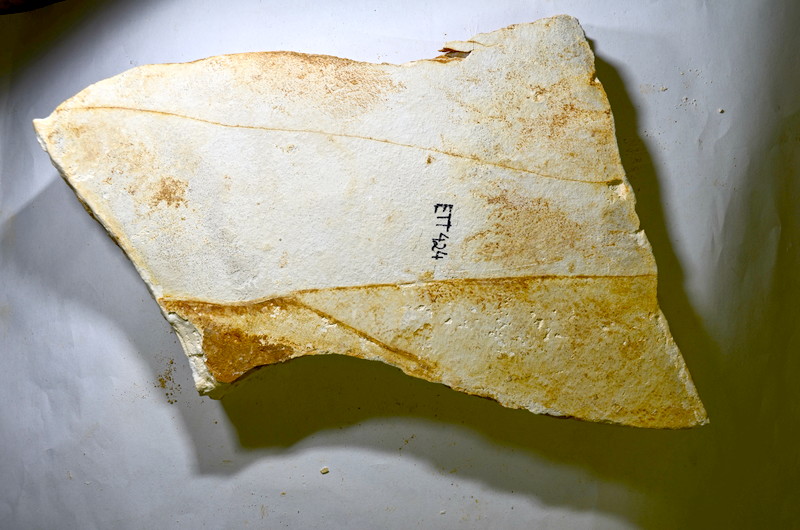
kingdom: Animalia
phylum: Chordata
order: Salmoniformes
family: Orthogonikleithridae
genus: Orthogonikleithrus
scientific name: Orthogonikleithrus hoelli
